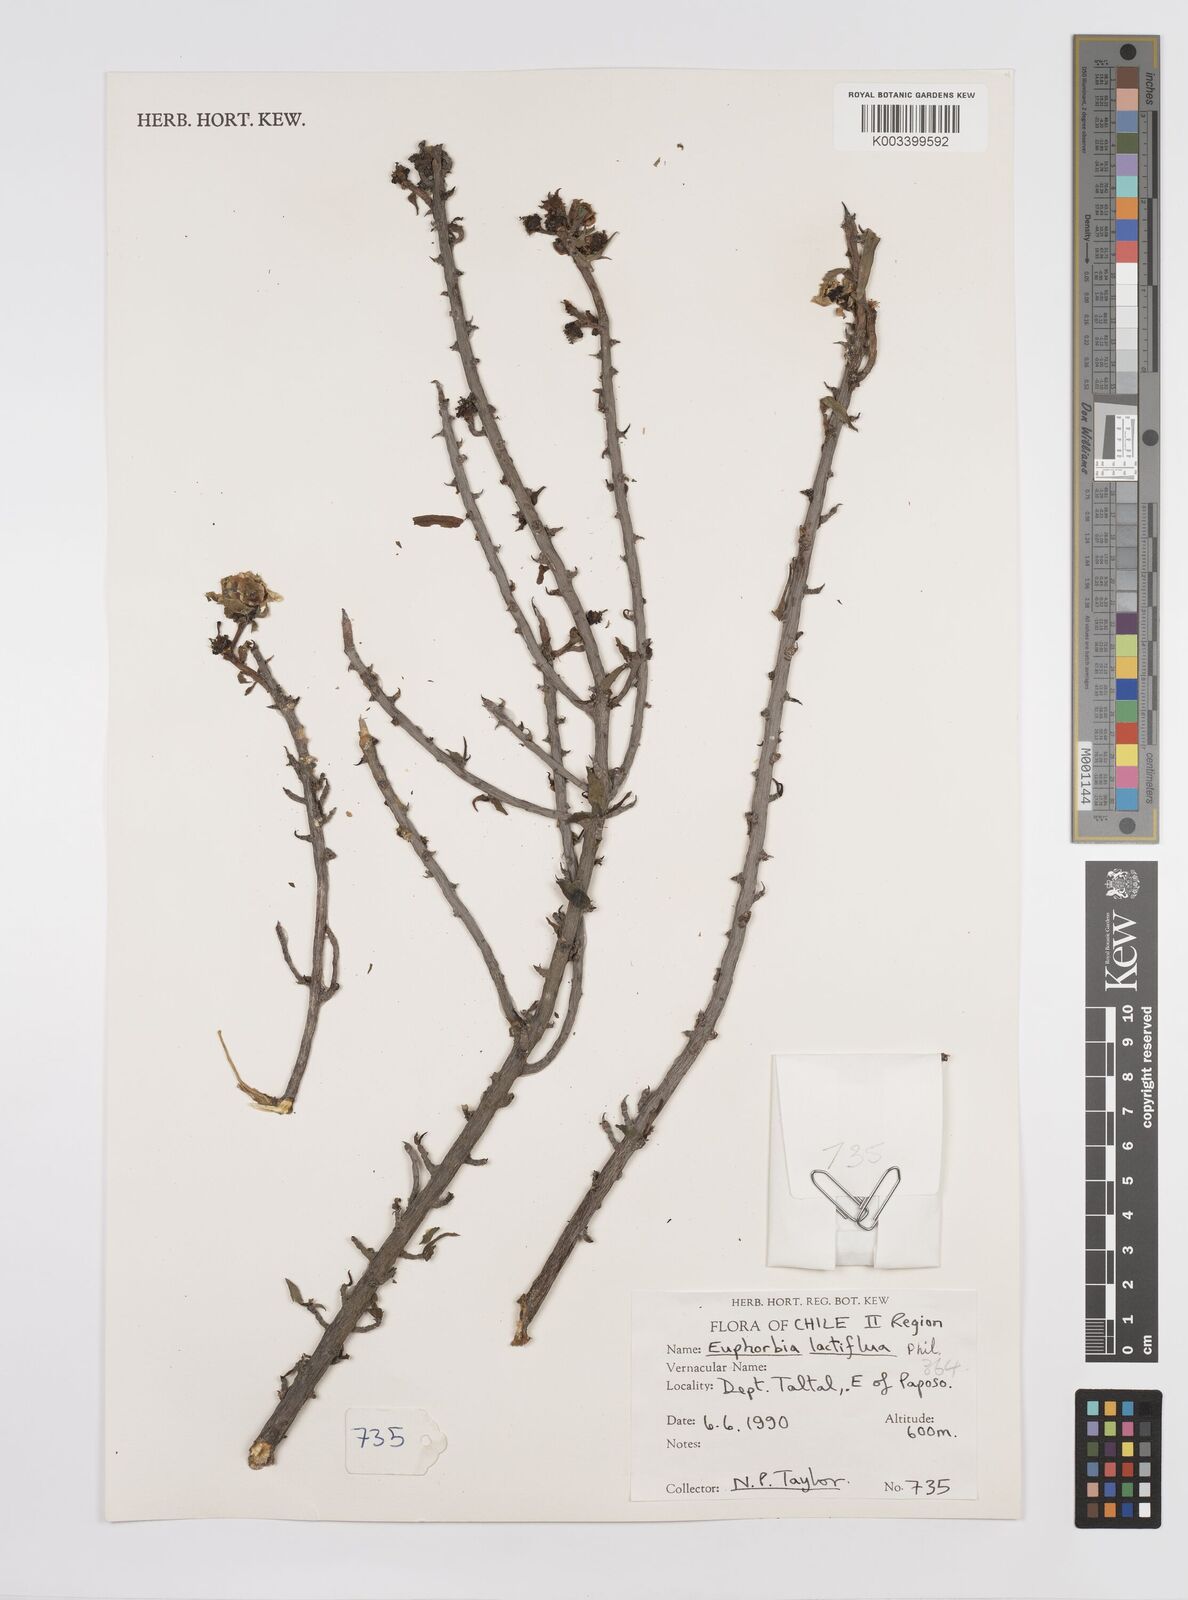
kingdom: Plantae
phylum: Tracheophyta
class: Magnoliopsida
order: Malpighiales
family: Euphorbiaceae
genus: Euphorbia
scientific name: Euphorbia lactiflua
